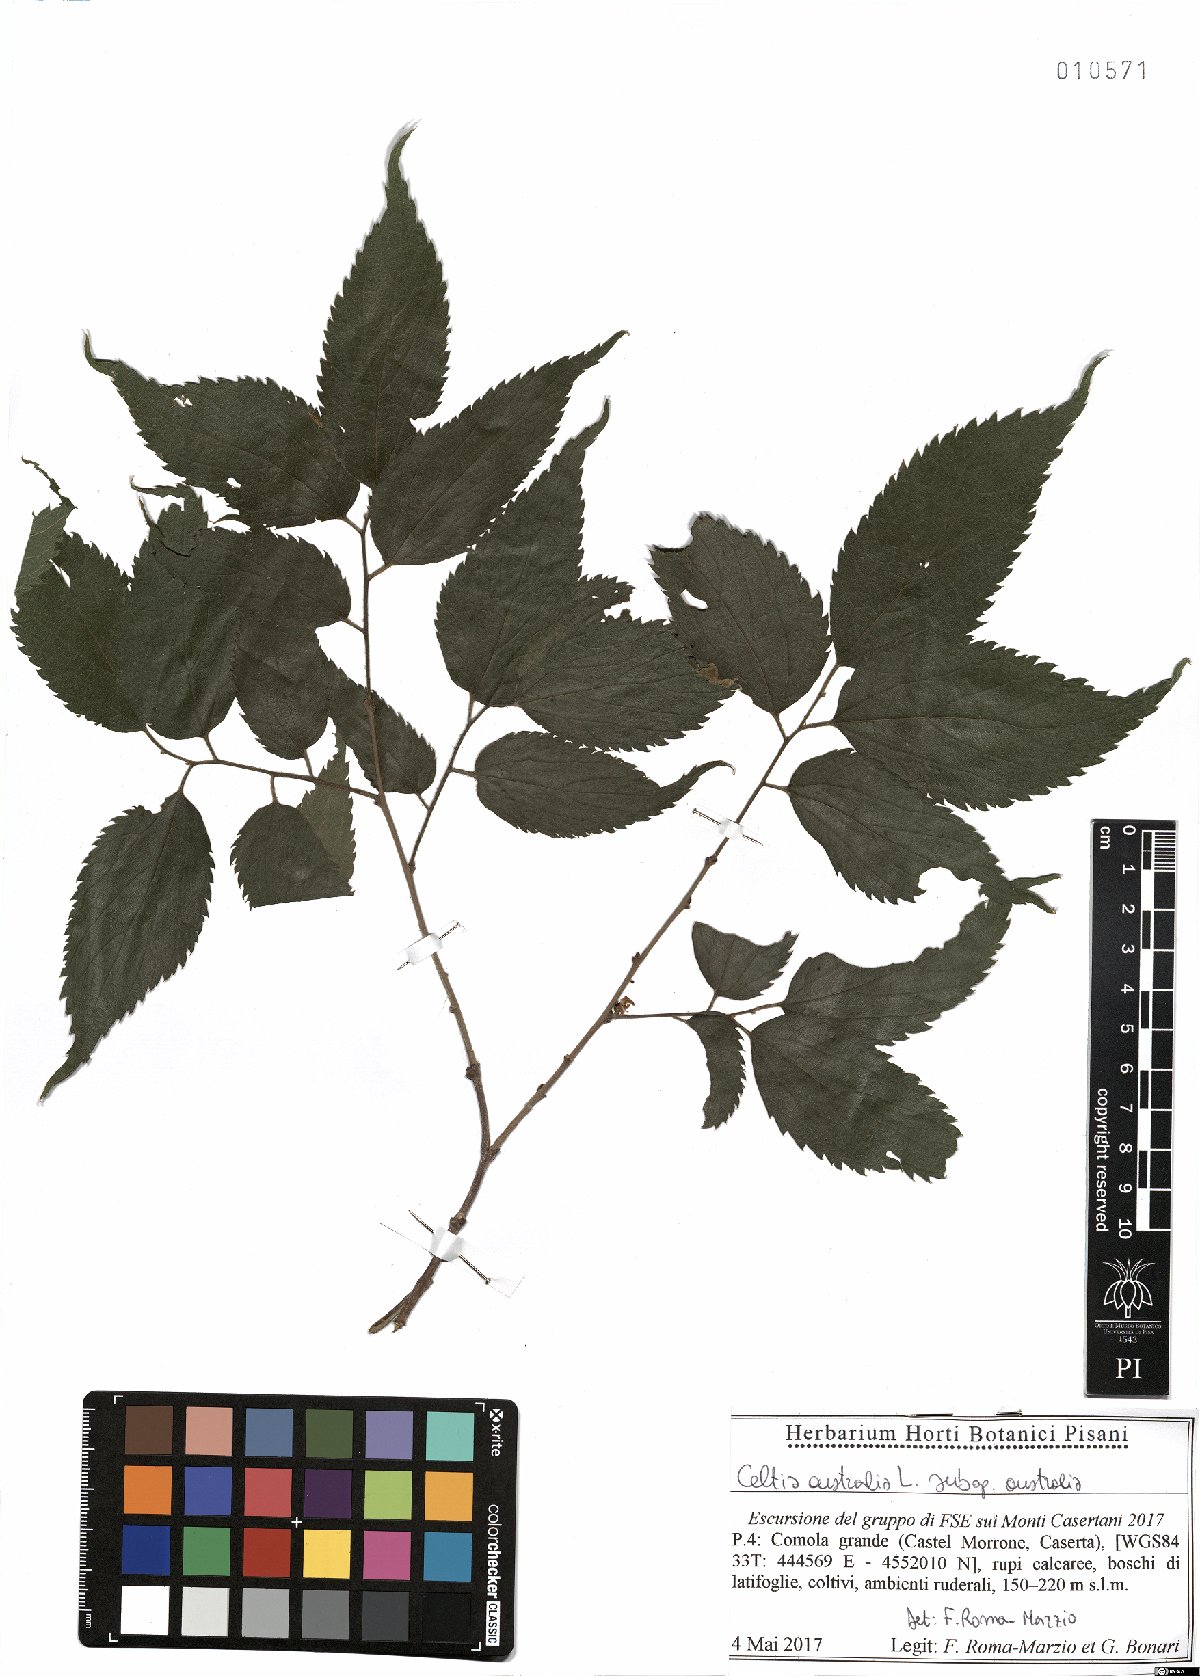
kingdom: Plantae
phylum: Tracheophyta
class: Magnoliopsida
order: Rosales
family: Cannabaceae
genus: Celtis
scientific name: Celtis australis
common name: European hackberry
